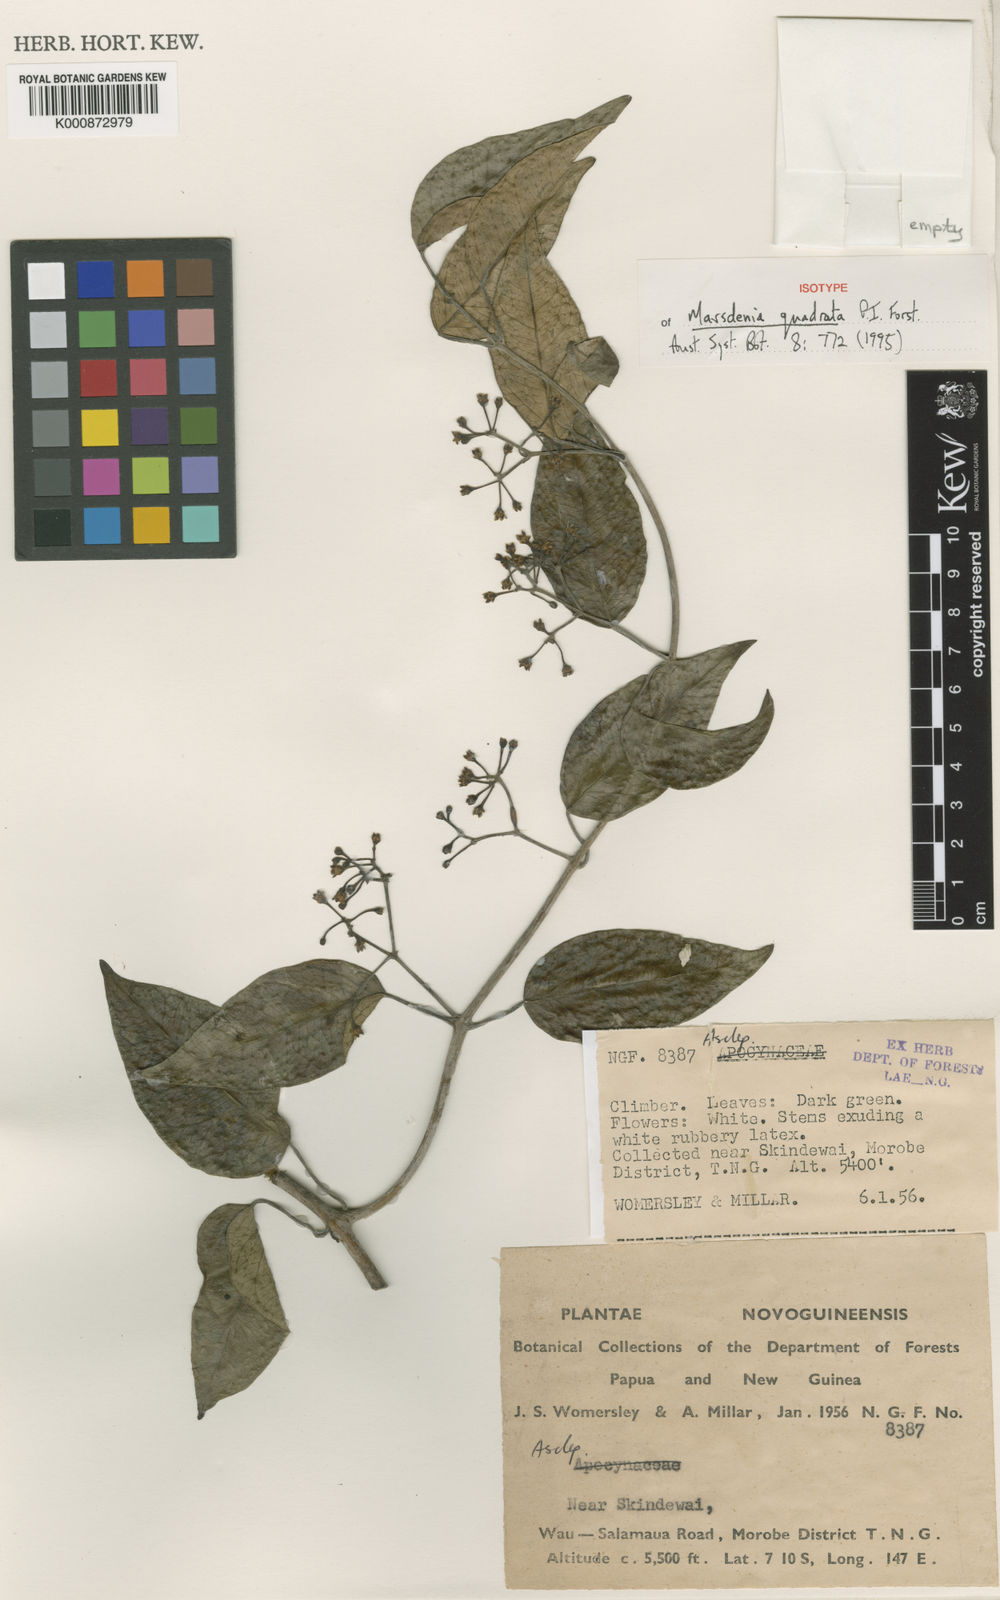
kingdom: Plantae
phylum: Tracheophyta
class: Magnoliopsida
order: Gentianales
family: Apocynaceae
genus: Leichhardtia
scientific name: Leichhardtia quadrata
